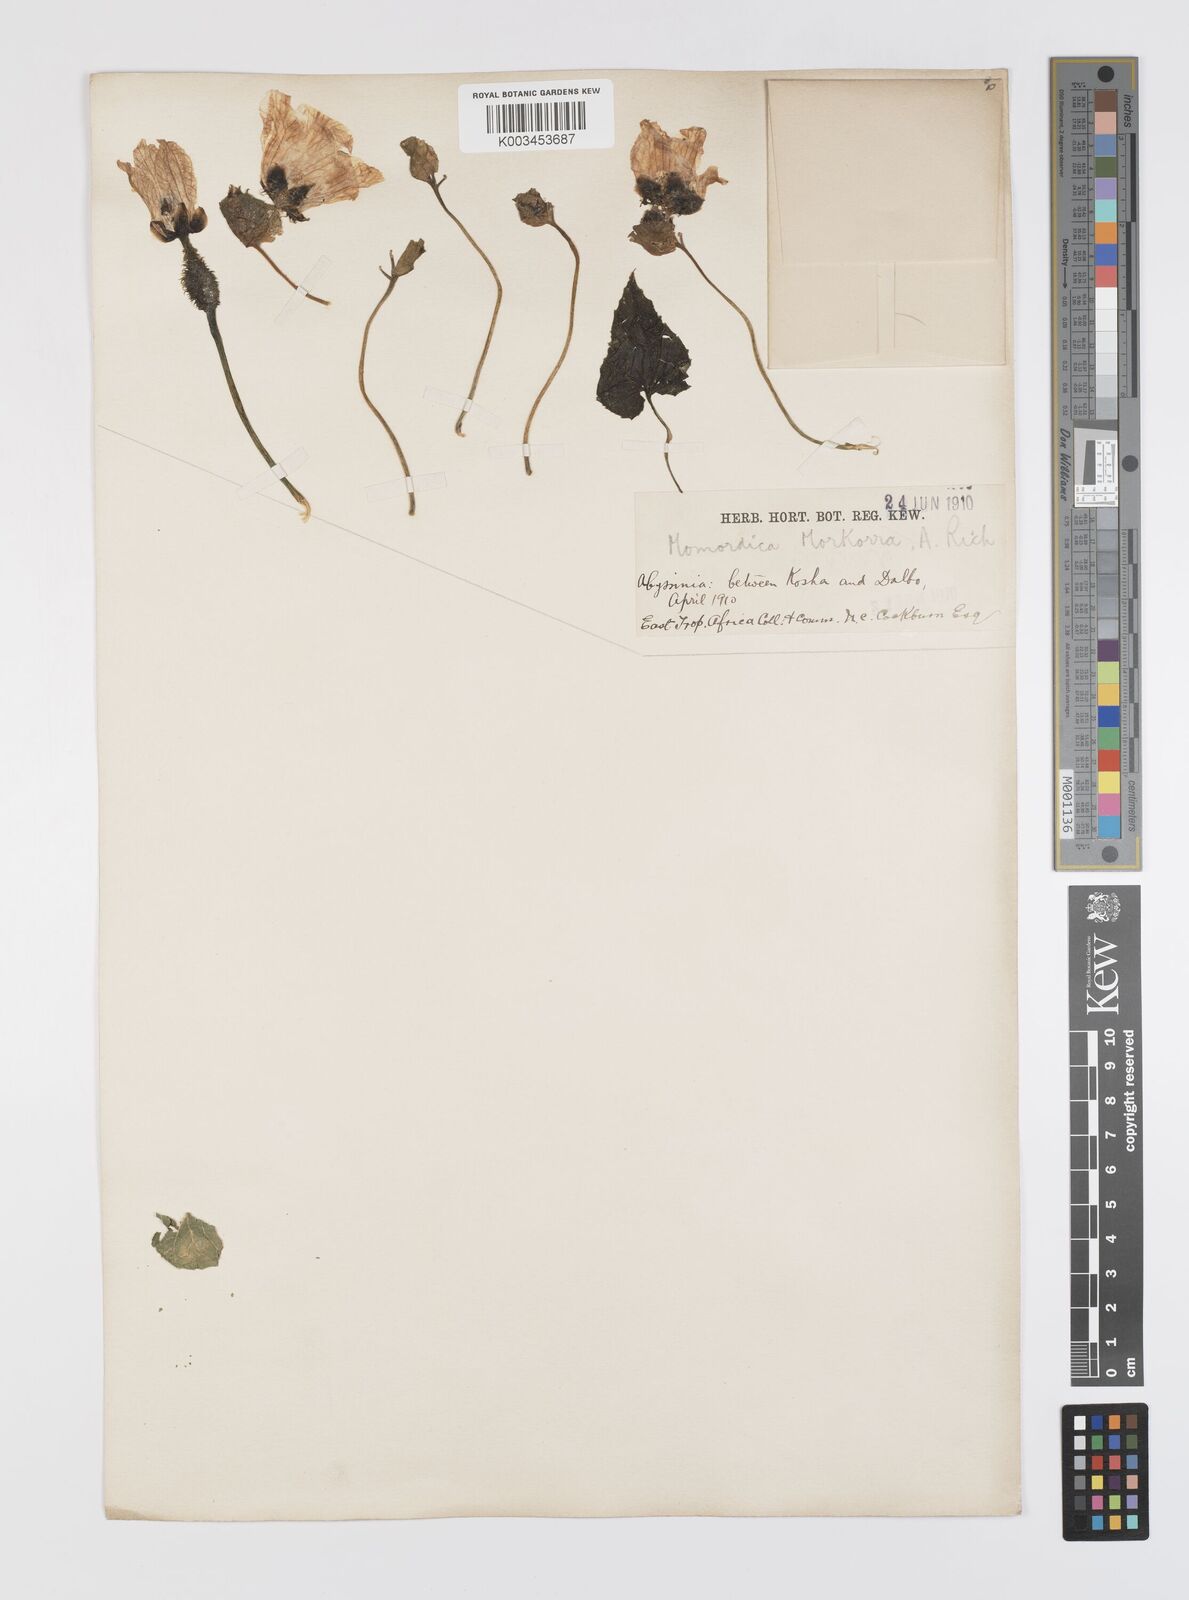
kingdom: Plantae
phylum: Tracheophyta
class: Magnoliopsida
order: Cucurbitales
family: Cucurbitaceae
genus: Momordica
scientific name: Momordica foetida
